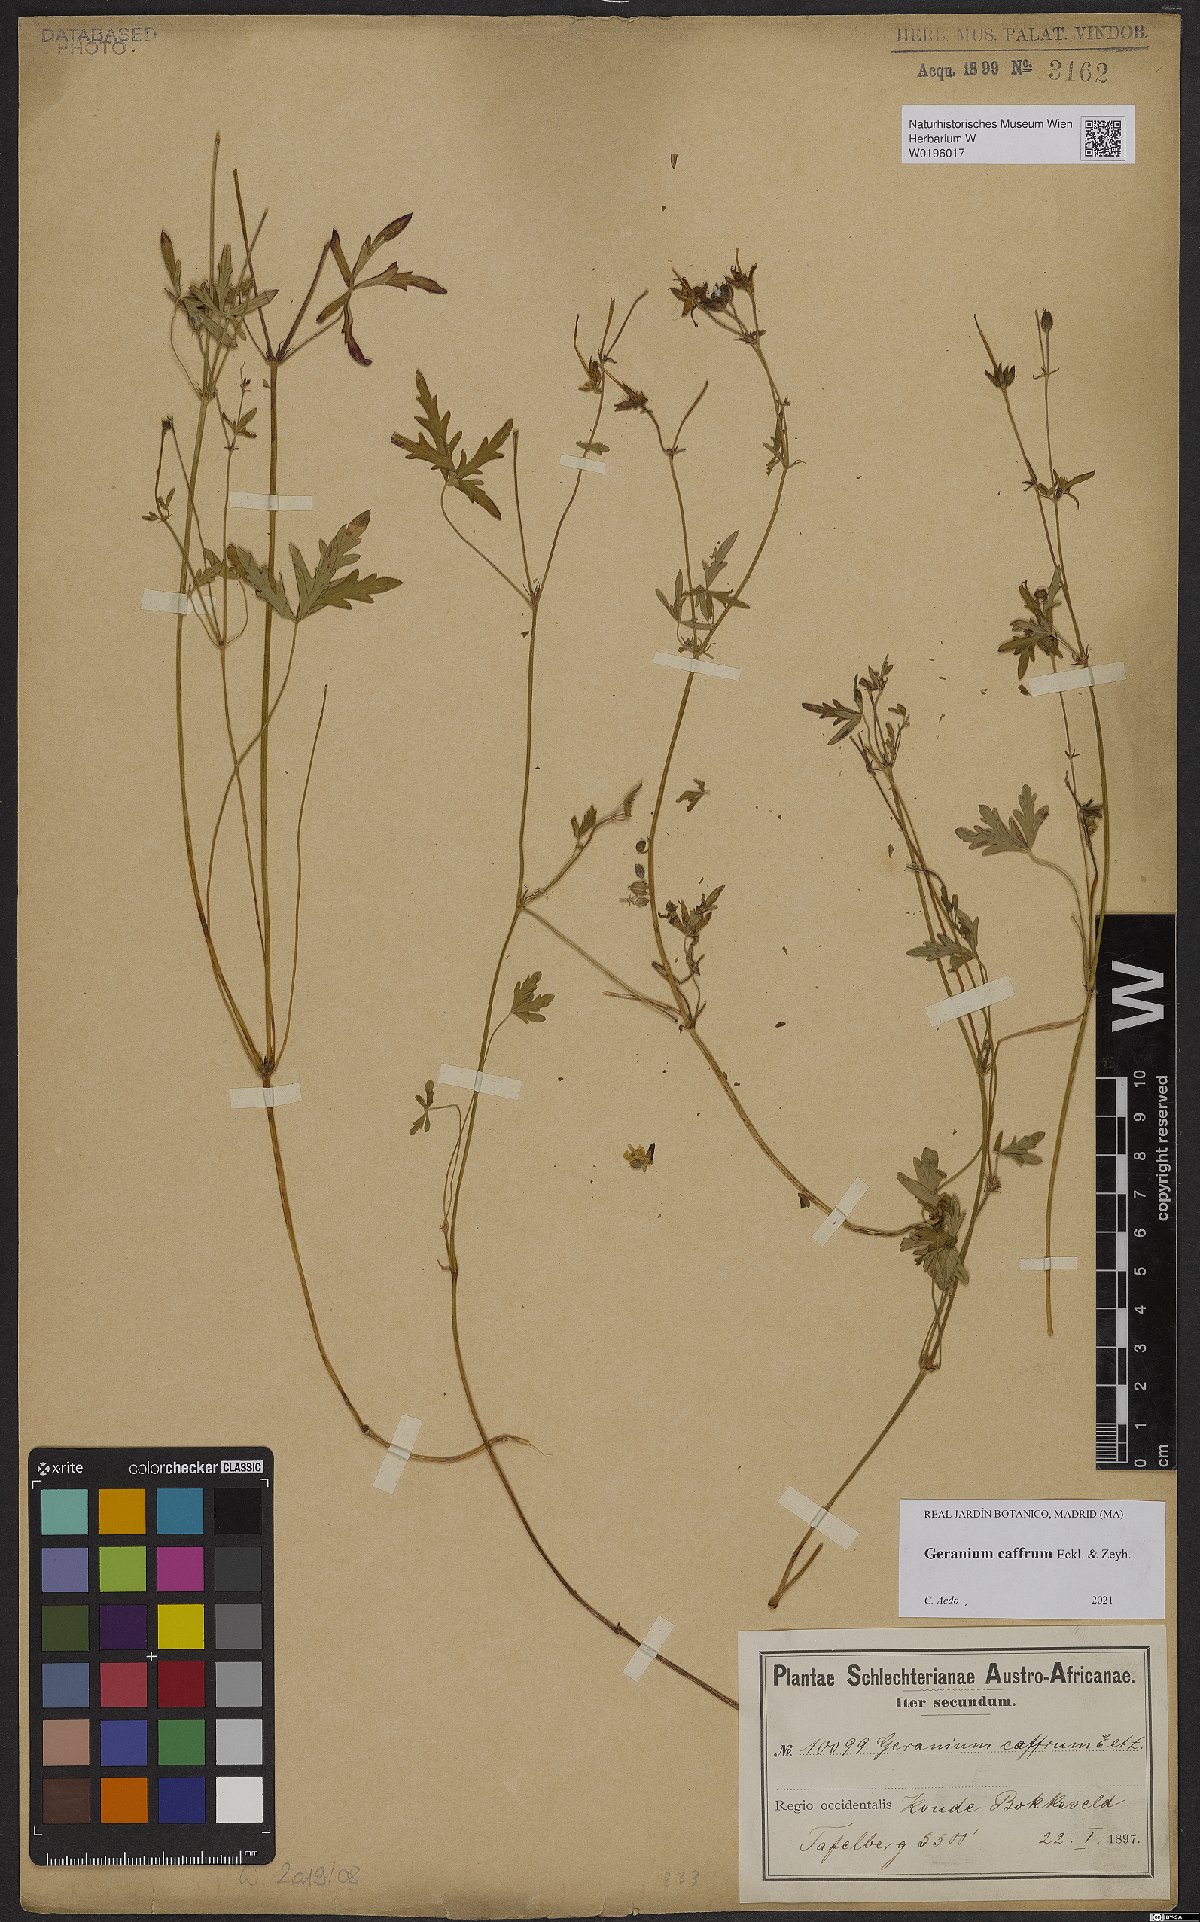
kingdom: Plantae
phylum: Tracheophyta
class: Magnoliopsida
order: Geraniales
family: Geraniaceae
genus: Geranium
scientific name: Geranium caffrum
